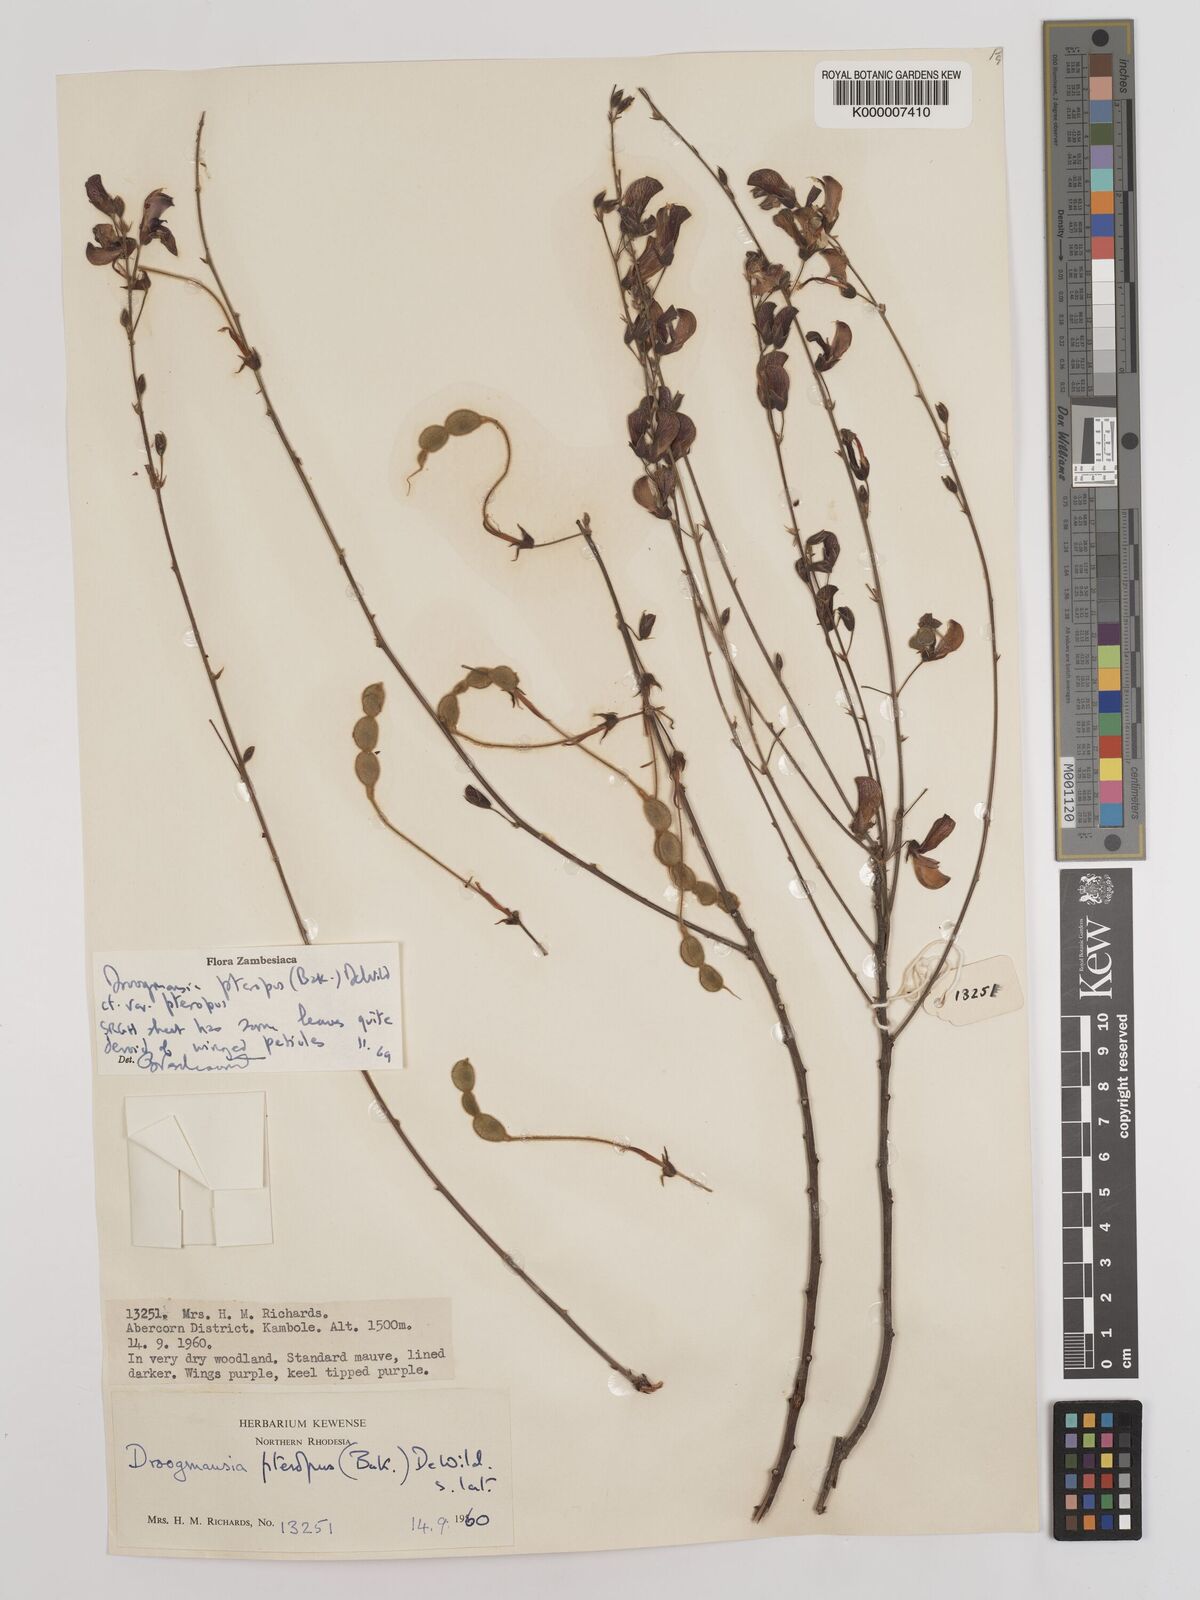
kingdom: Plantae
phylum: Tracheophyta
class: Magnoliopsida
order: Fabales
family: Fabaceae
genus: Droogmansia
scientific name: Droogmansia pteropus
